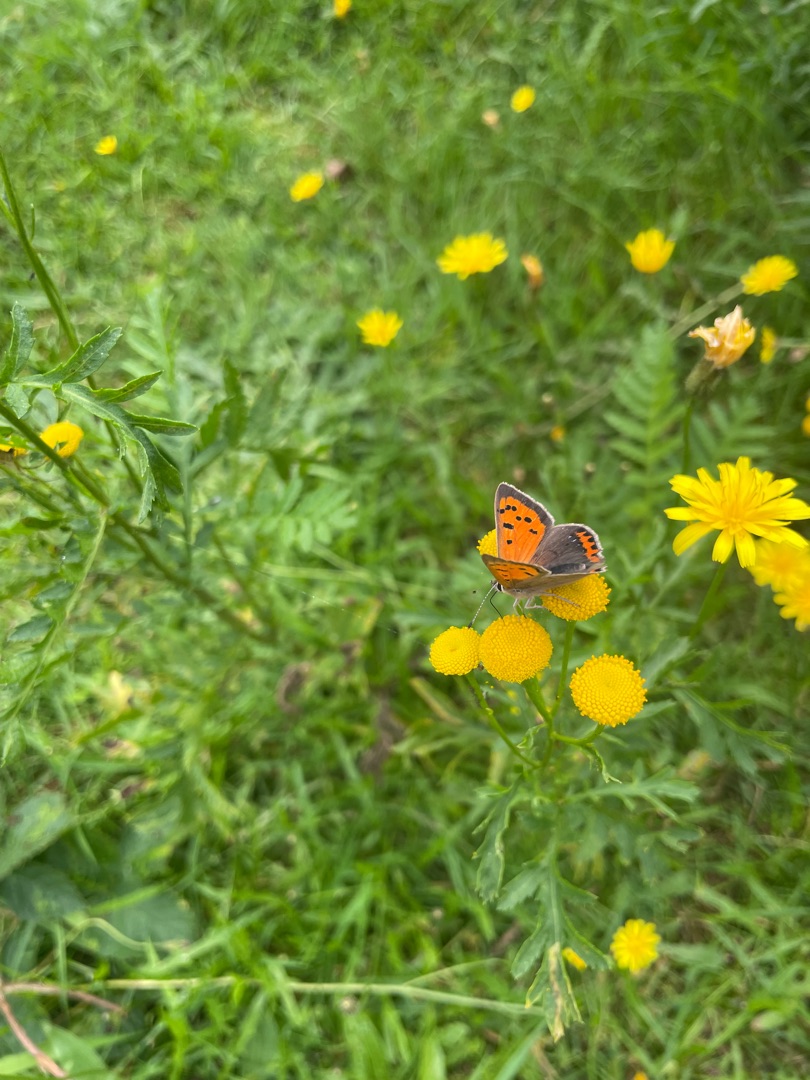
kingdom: Animalia
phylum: Arthropoda
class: Insecta
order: Lepidoptera
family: Lycaenidae
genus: Lycaena
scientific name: Lycaena phlaeas
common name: Lille ildfugl
